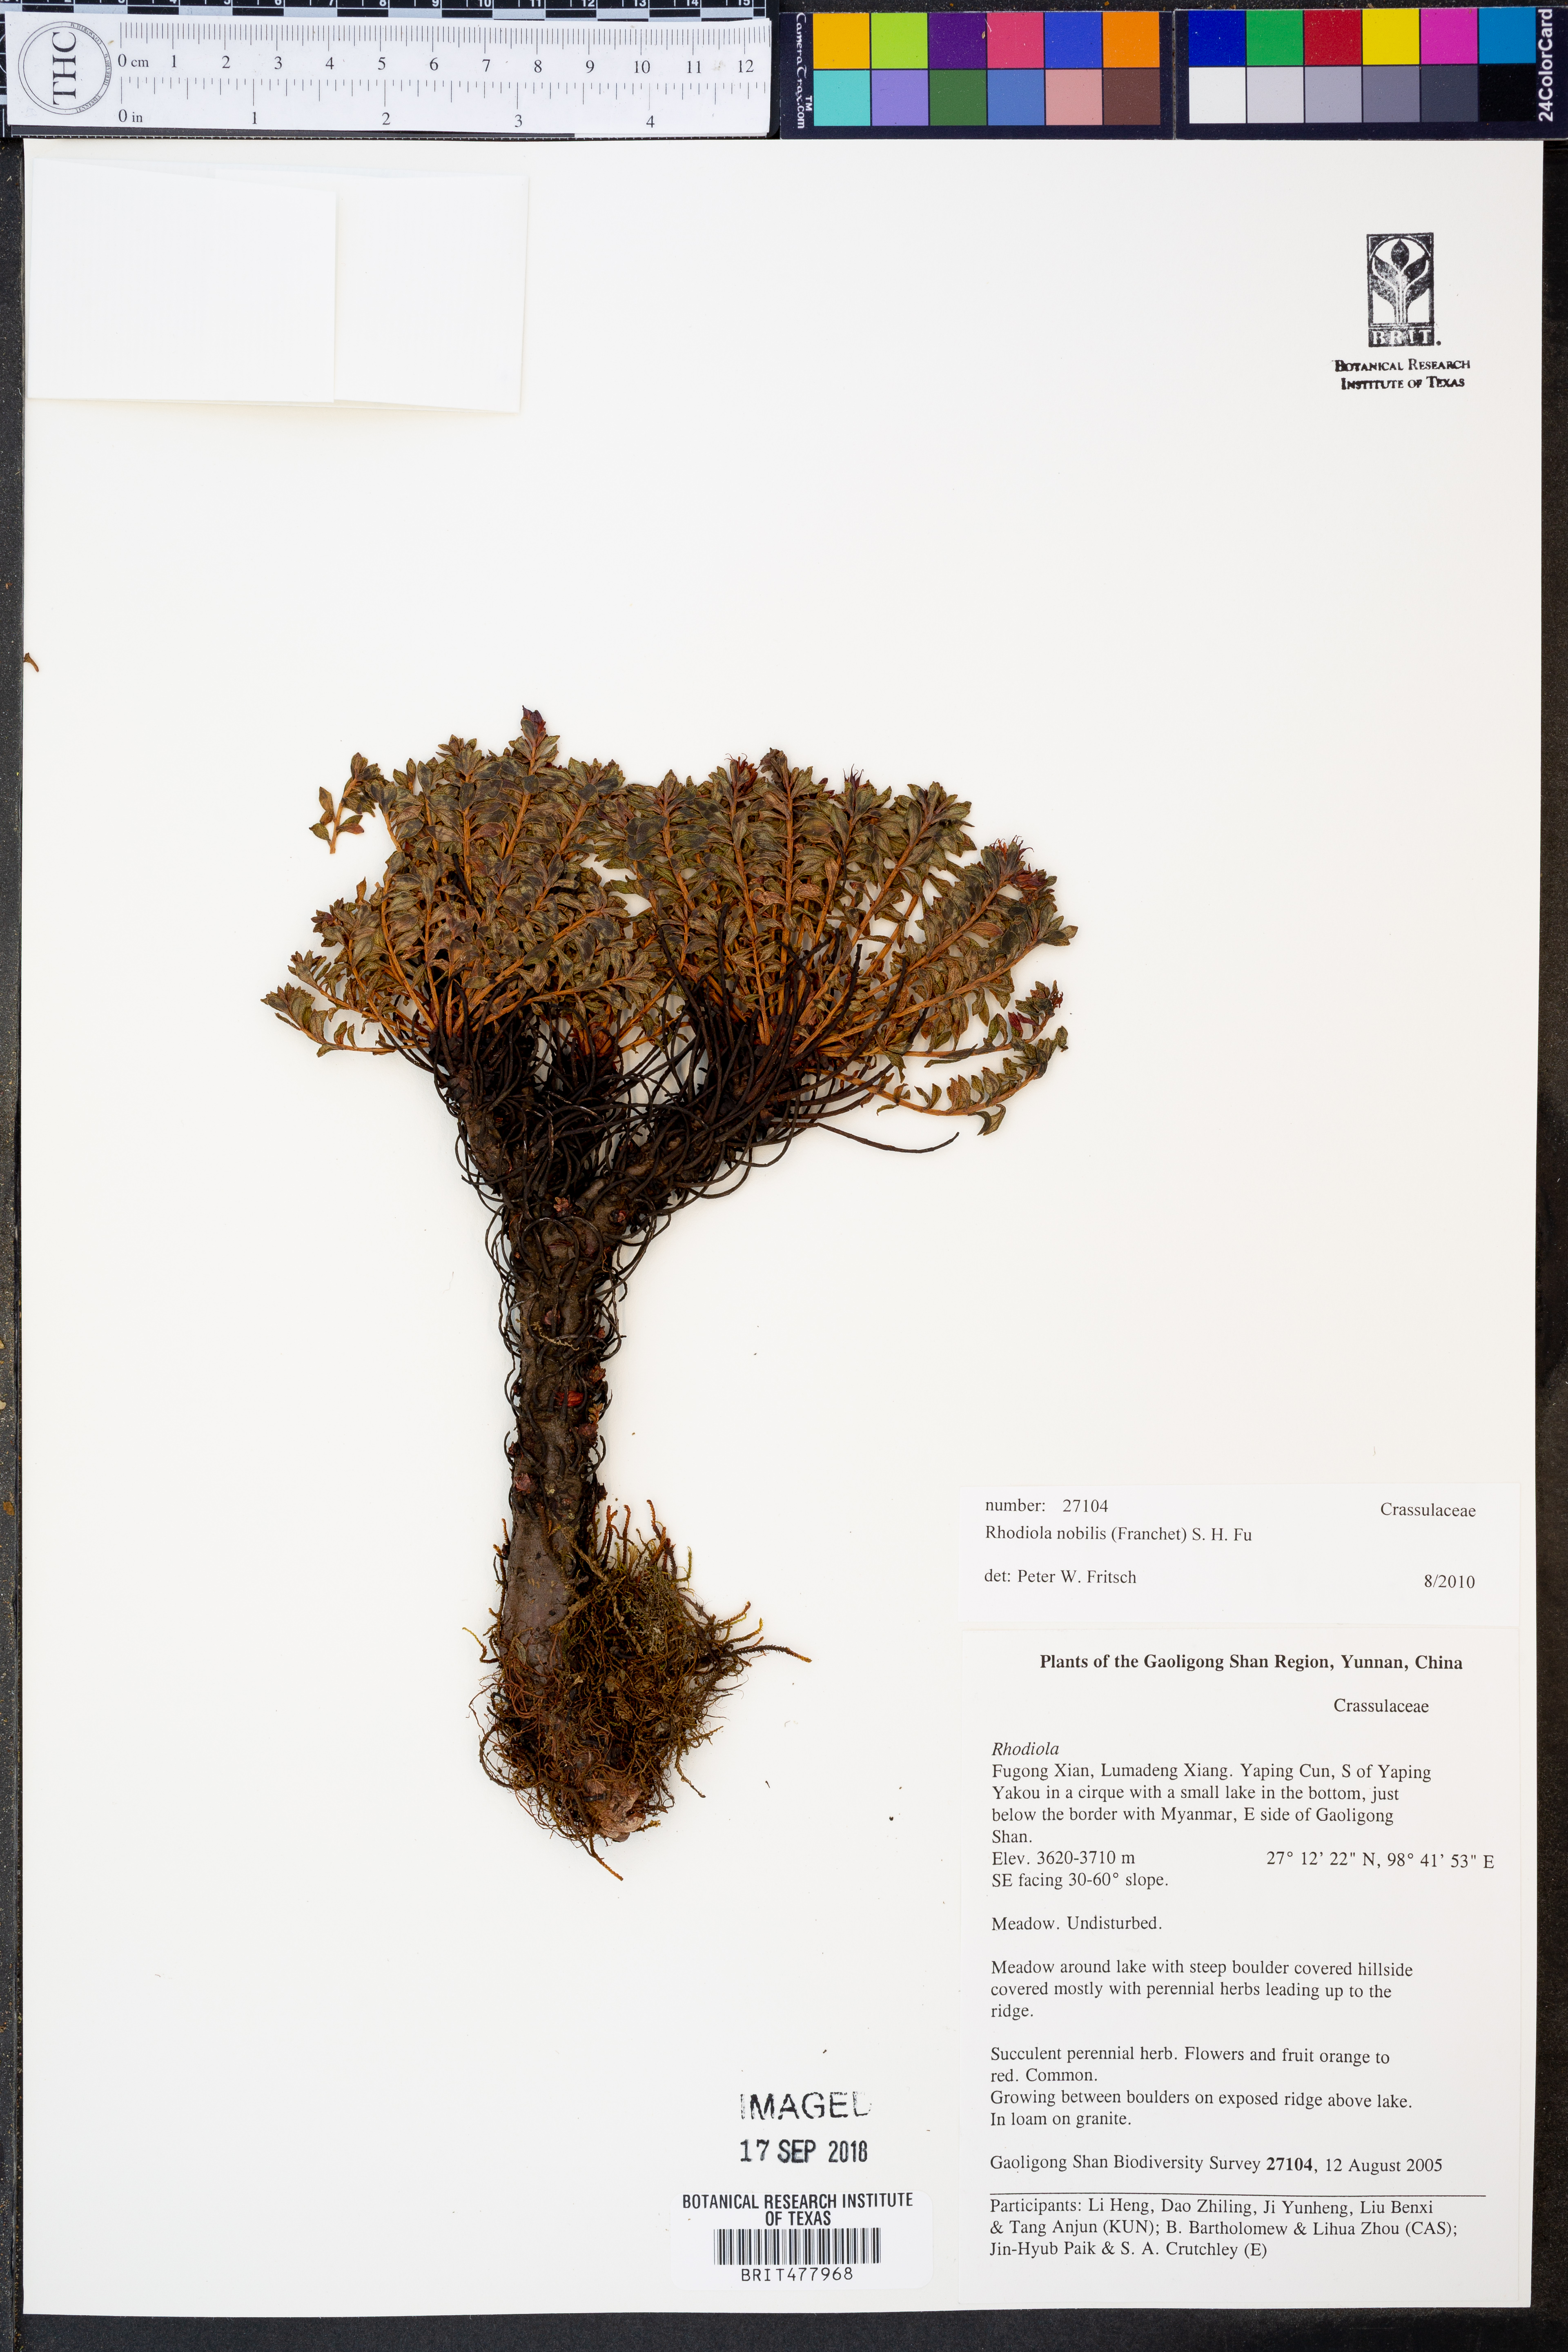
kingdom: Plantae
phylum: Tracheophyta
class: Magnoliopsida
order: Saxifragales
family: Crassulaceae
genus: Rhodiola
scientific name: Rhodiola nobilis
